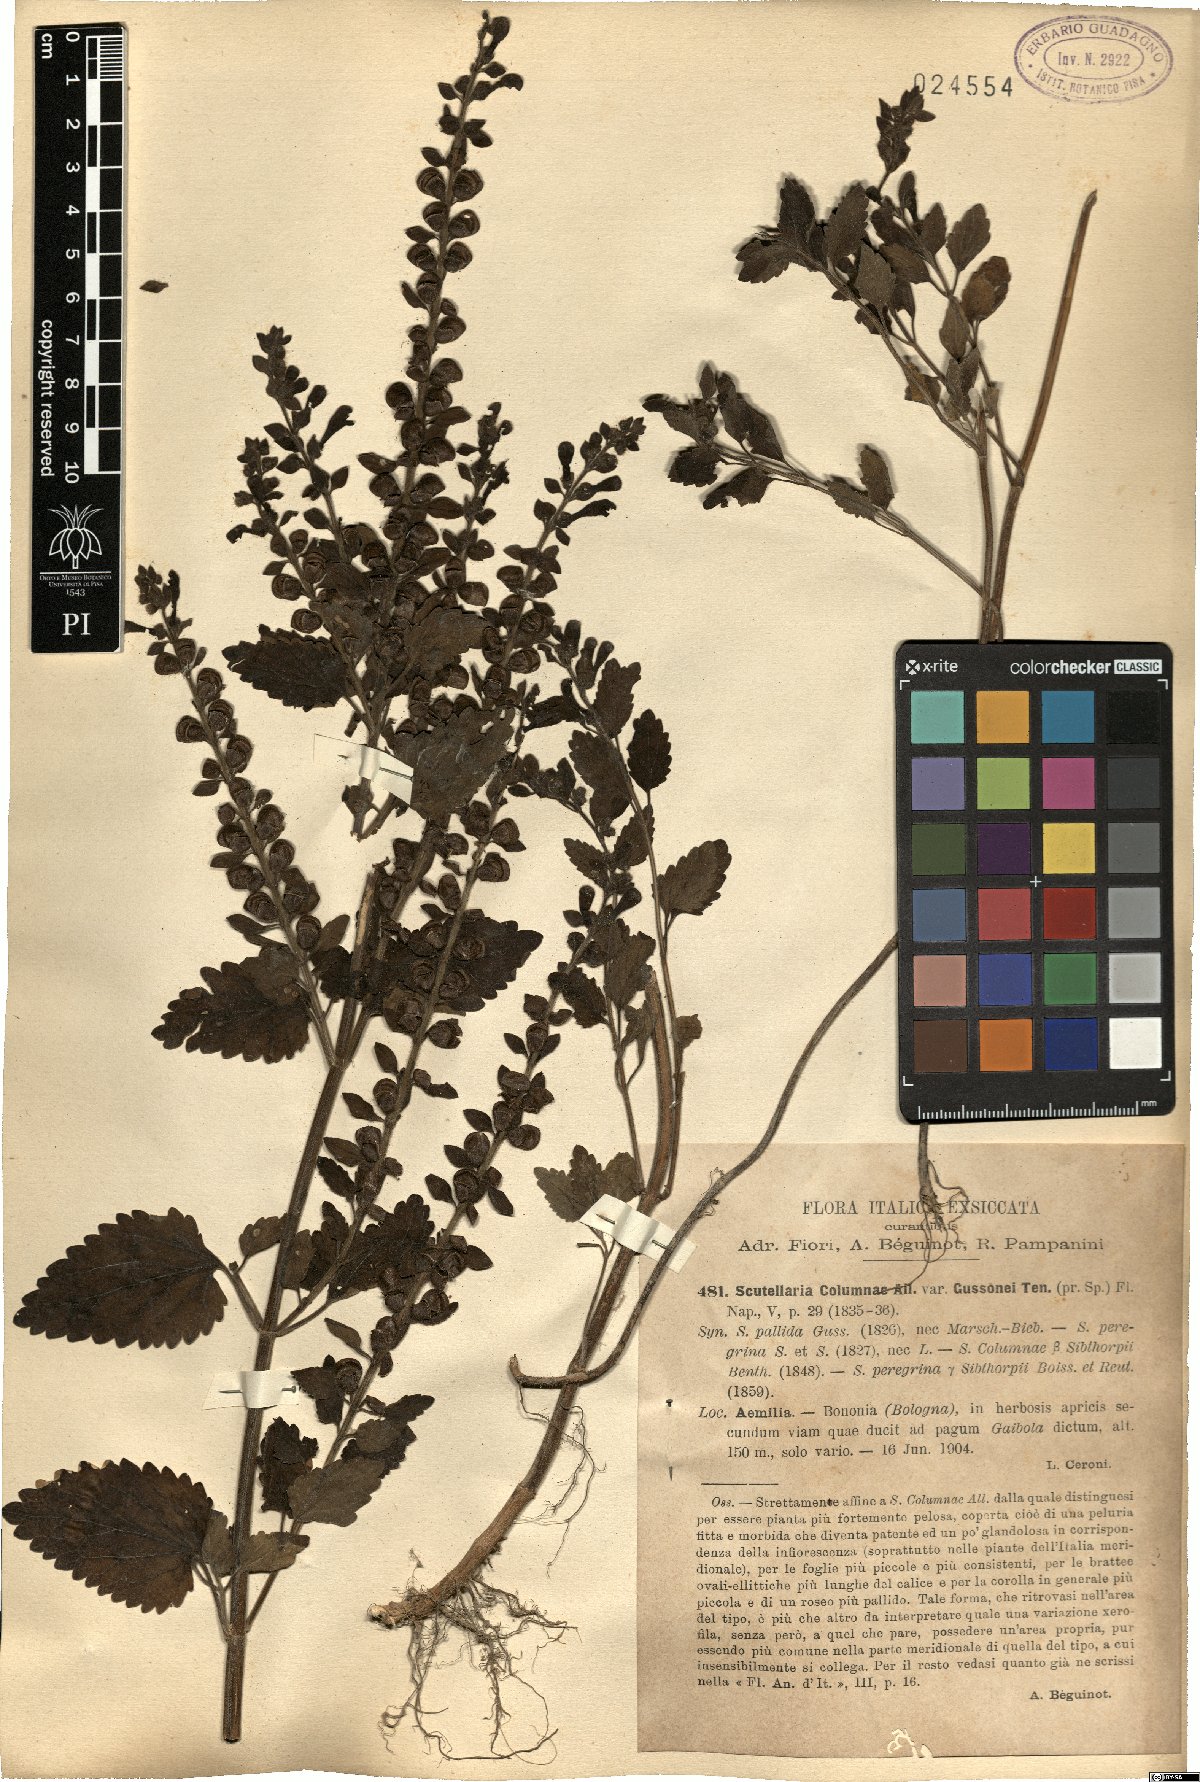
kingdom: Plantae
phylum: Tracheophyta
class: Magnoliopsida
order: Lamiales
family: Lamiaceae
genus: Scutellaria
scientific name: Scutellaria columnae
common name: Large skullcap
